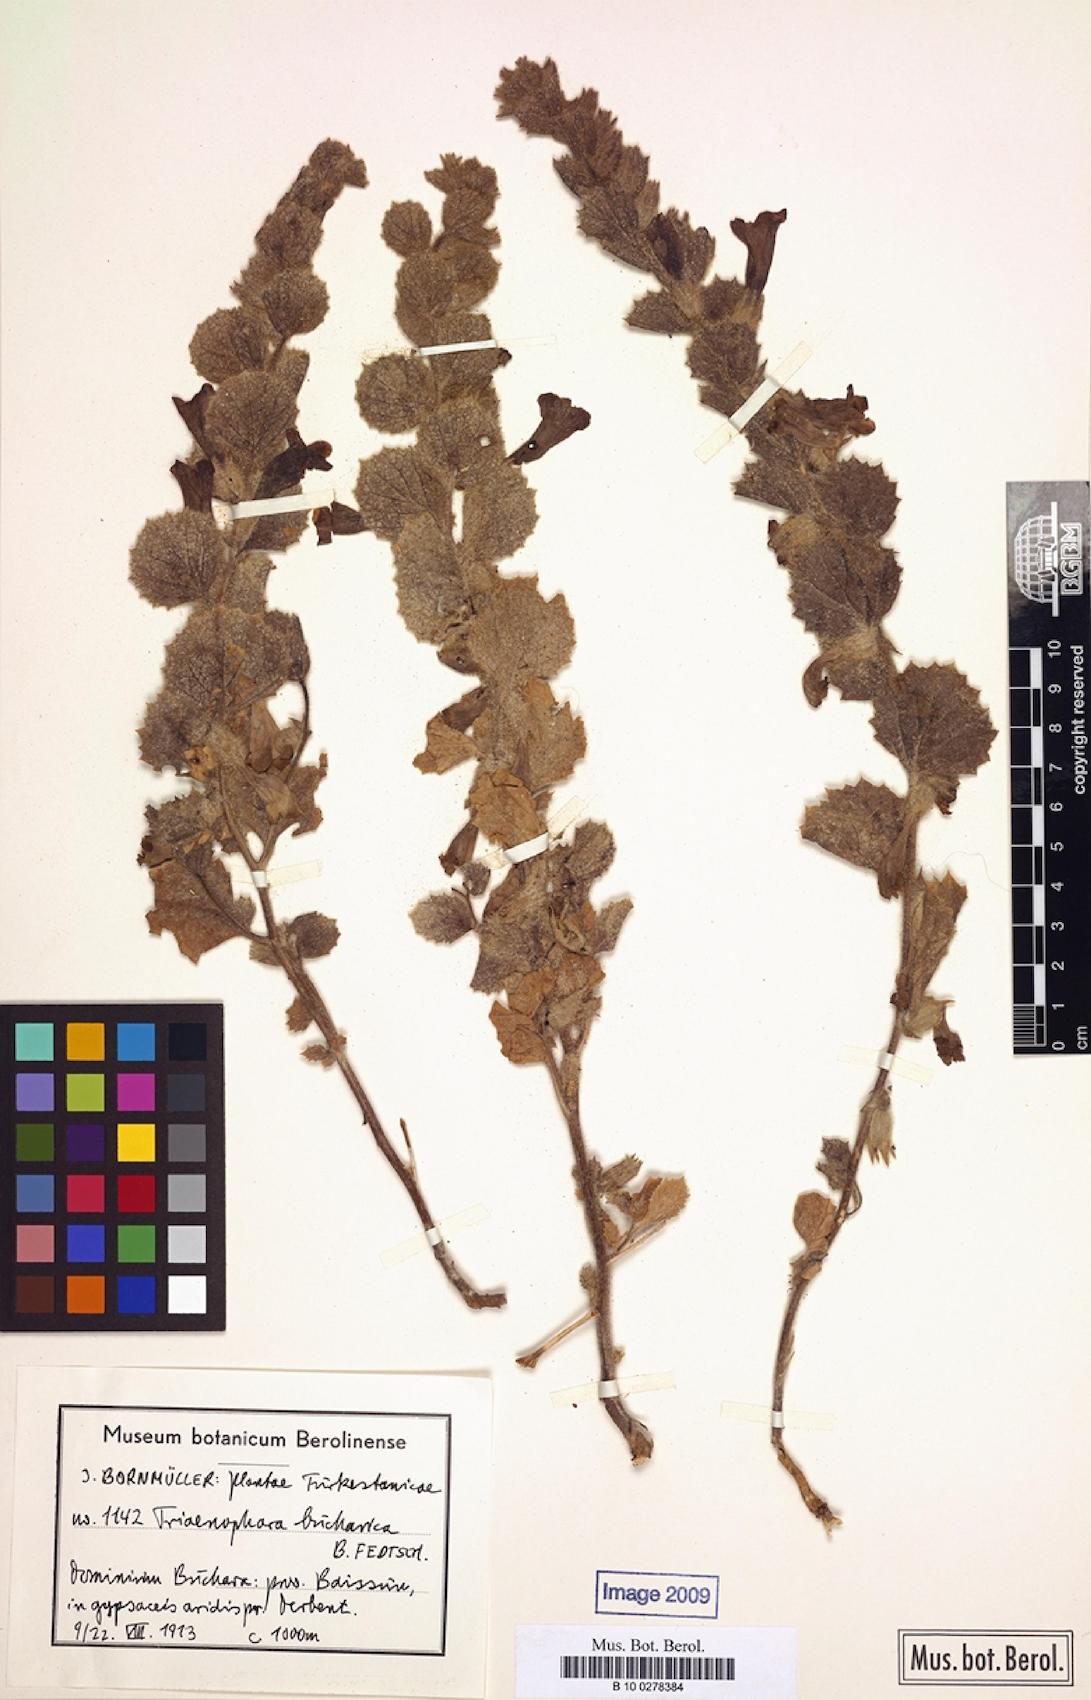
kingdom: Plantae
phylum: Tracheophyta
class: Magnoliopsida
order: Lamiales
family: Rehmanniaceae
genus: Triaenophora
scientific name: Triaenophora bucharica
